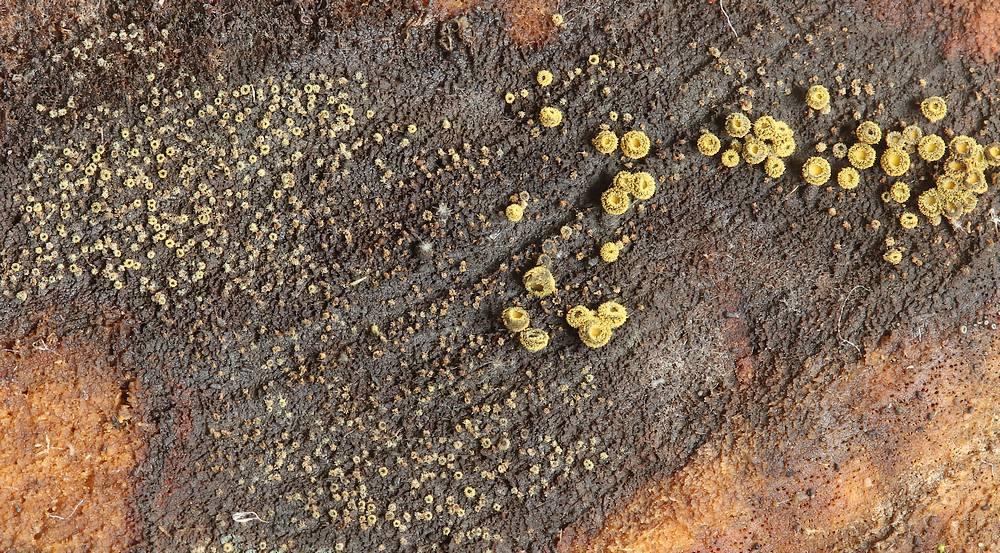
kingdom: Fungi
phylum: Ascomycota
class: Leotiomycetes
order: Helotiales
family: Lachnaceae
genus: Neodasyscypha
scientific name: Neodasyscypha cerina
